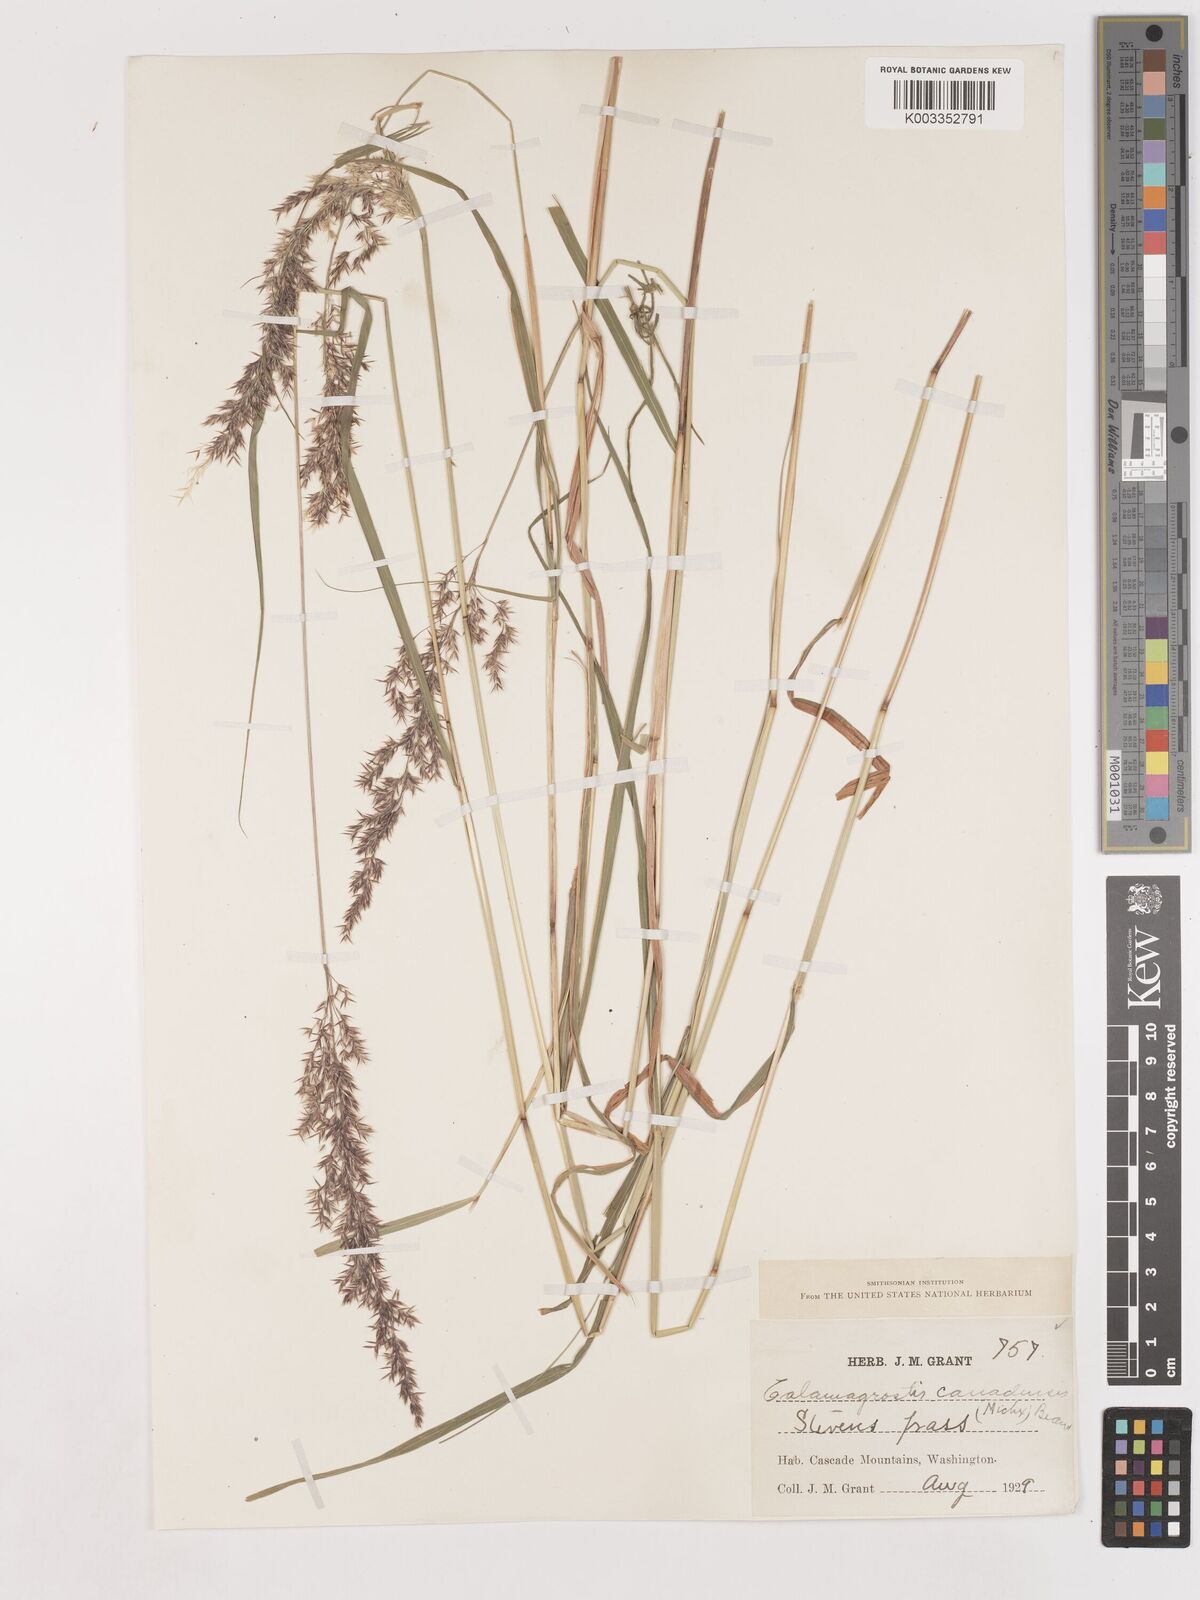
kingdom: Plantae
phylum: Tracheophyta
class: Liliopsida
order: Poales
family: Poaceae
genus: Calamagrostis
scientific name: Calamagrostis canadensis
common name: Canada bluejoint
